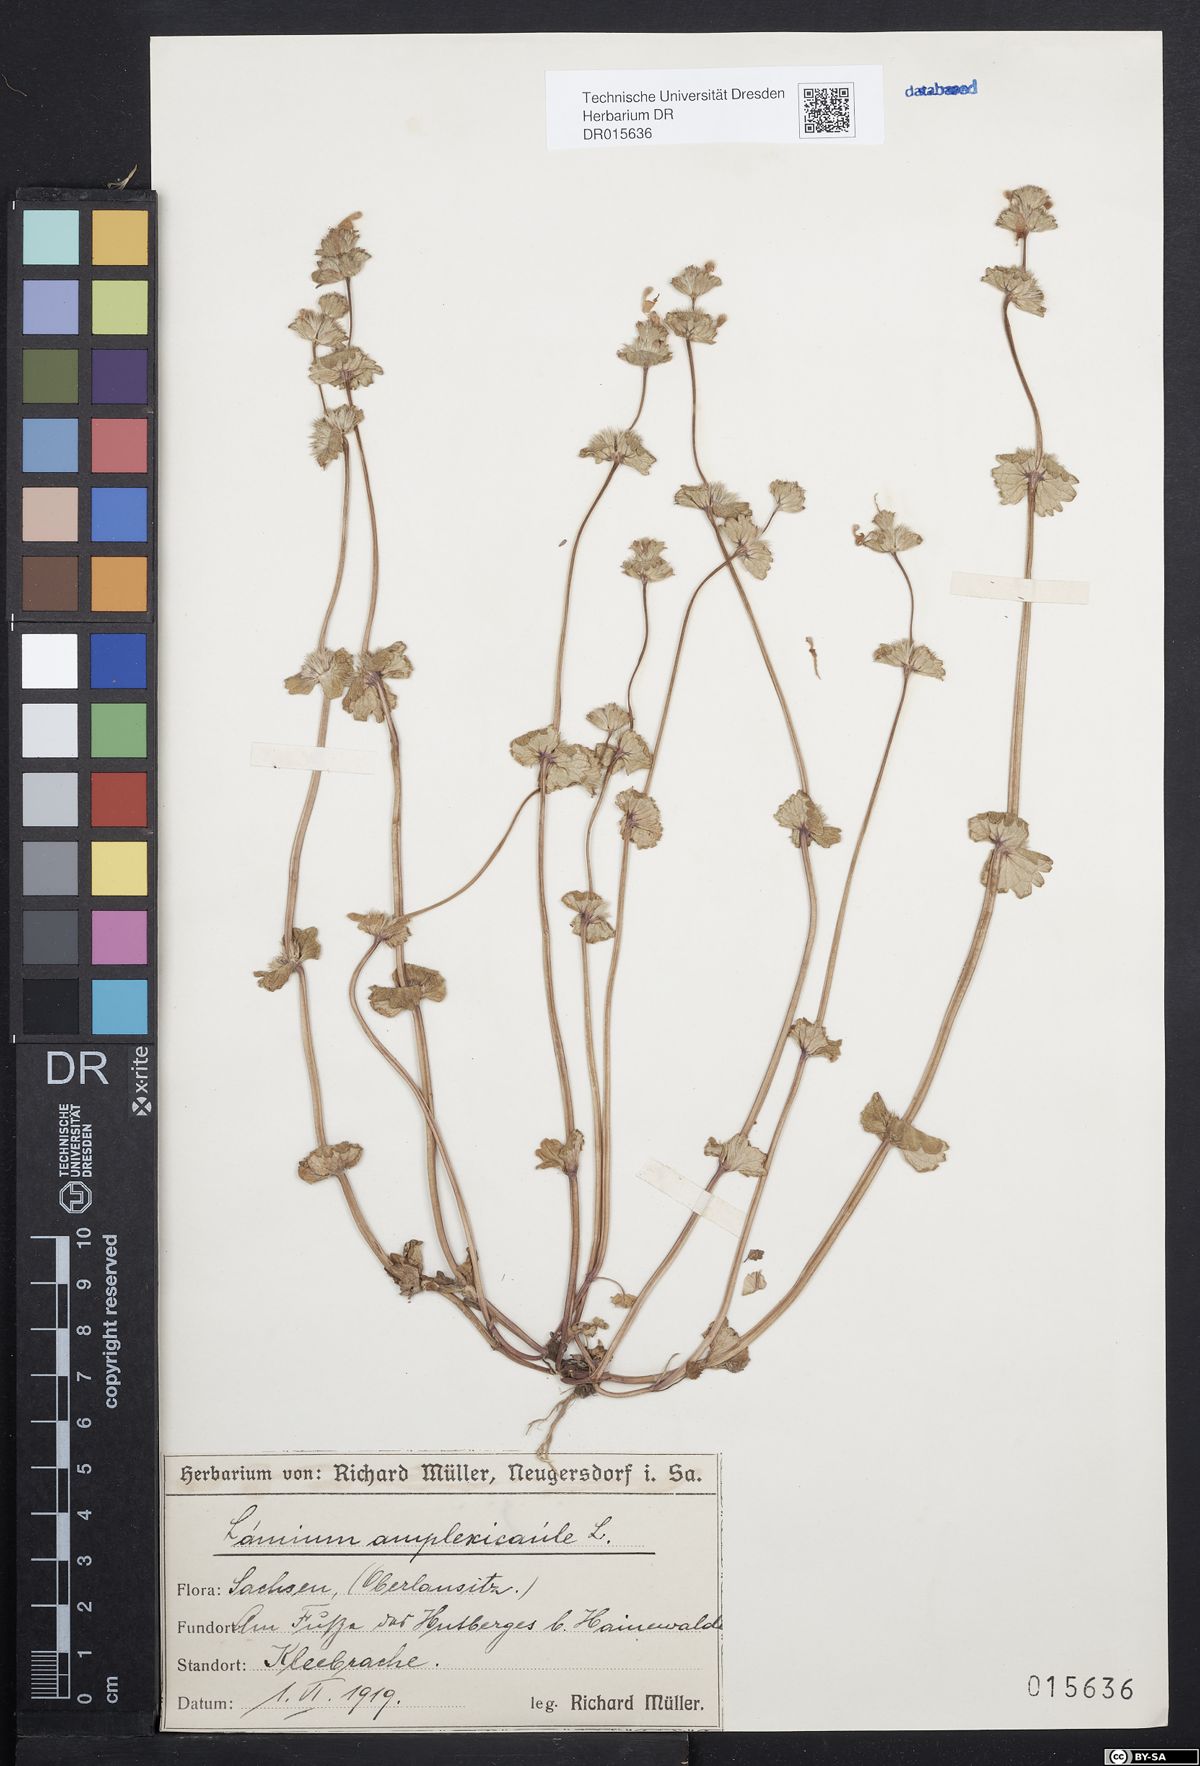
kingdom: Plantae
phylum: Tracheophyta
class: Magnoliopsida
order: Lamiales
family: Lamiaceae
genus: Lamium
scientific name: Lamium amplexicaule
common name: Henbit dead-nettle
